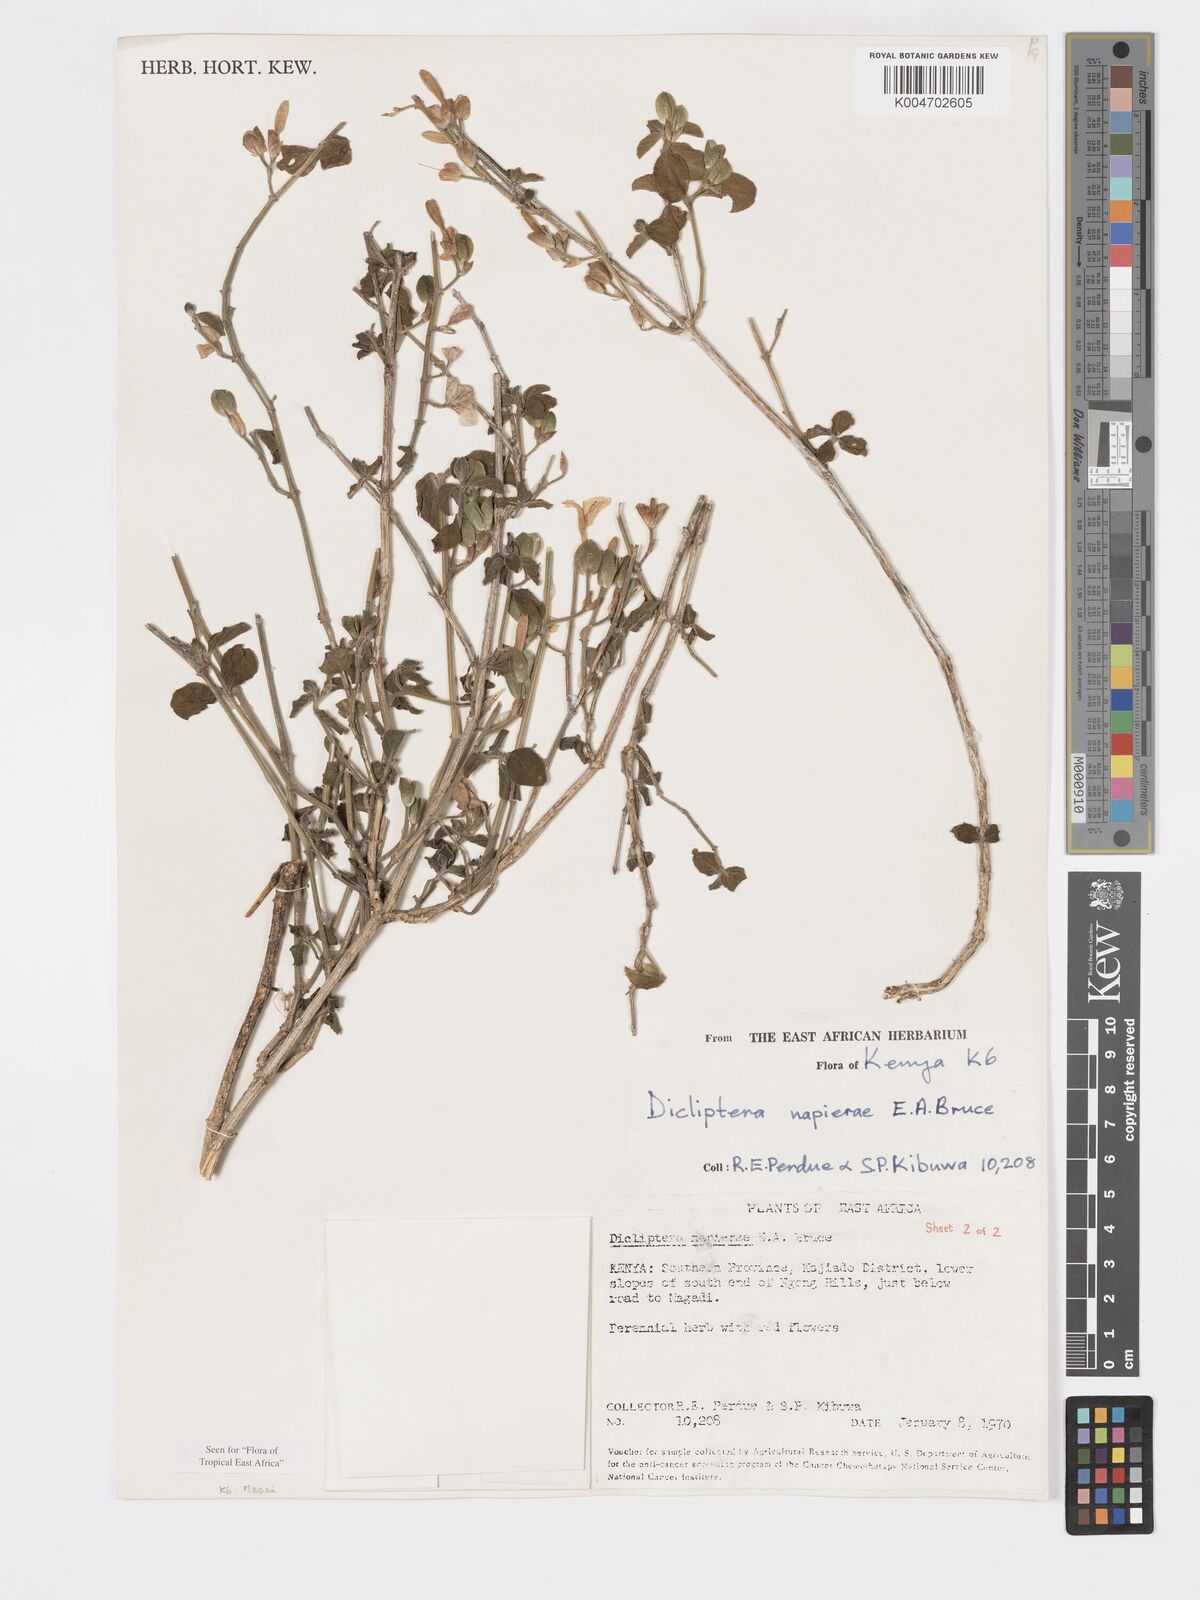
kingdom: Plantae
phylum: Tracheophyta
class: Magnoliopsida
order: Lamiales
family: Acanthaceae
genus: Dicliptera
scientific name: Dicliptera napierae
